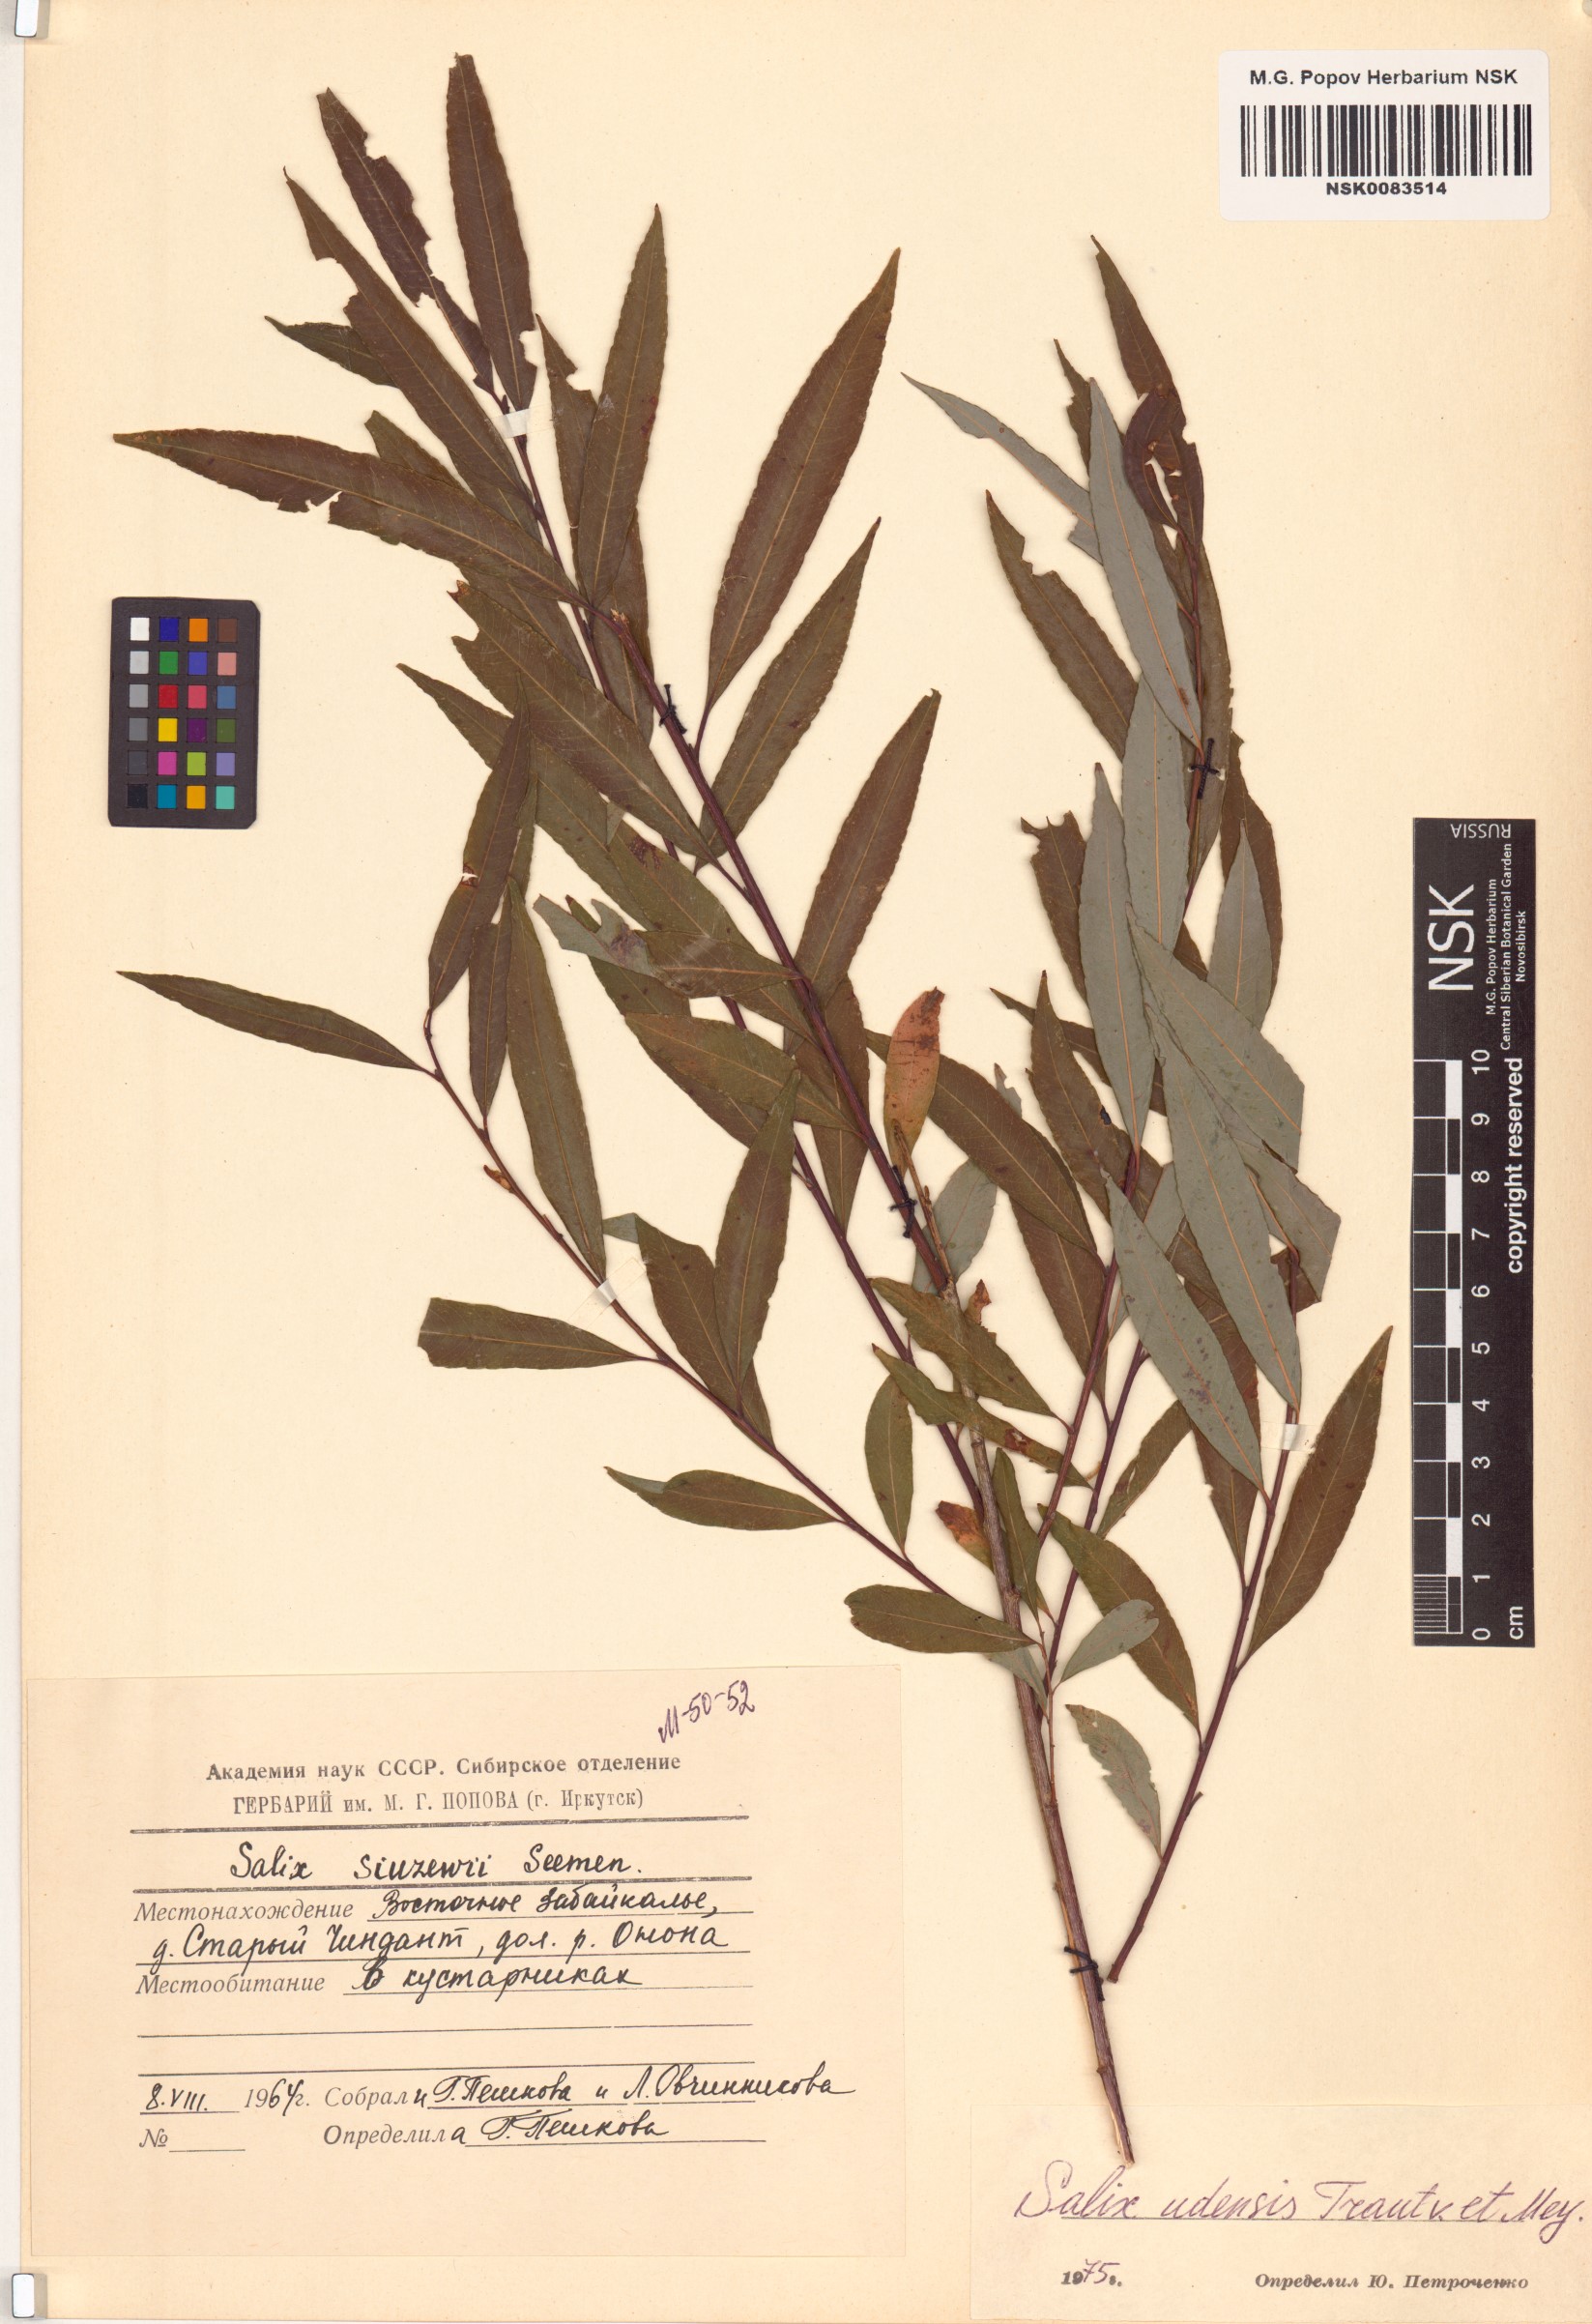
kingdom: Plantae
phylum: Tracheophyta
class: Magnoliopsida
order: Malpighiales
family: Salicaceae
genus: Salix
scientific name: Salix udensis
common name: Sachalin willow
